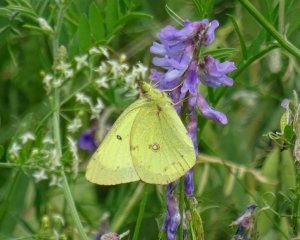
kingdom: Animalia
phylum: Arthropoda
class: Insecta
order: Lepidoptera
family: Pieridae
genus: Colias
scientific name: Colias philodice
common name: Clouded Sulphur
